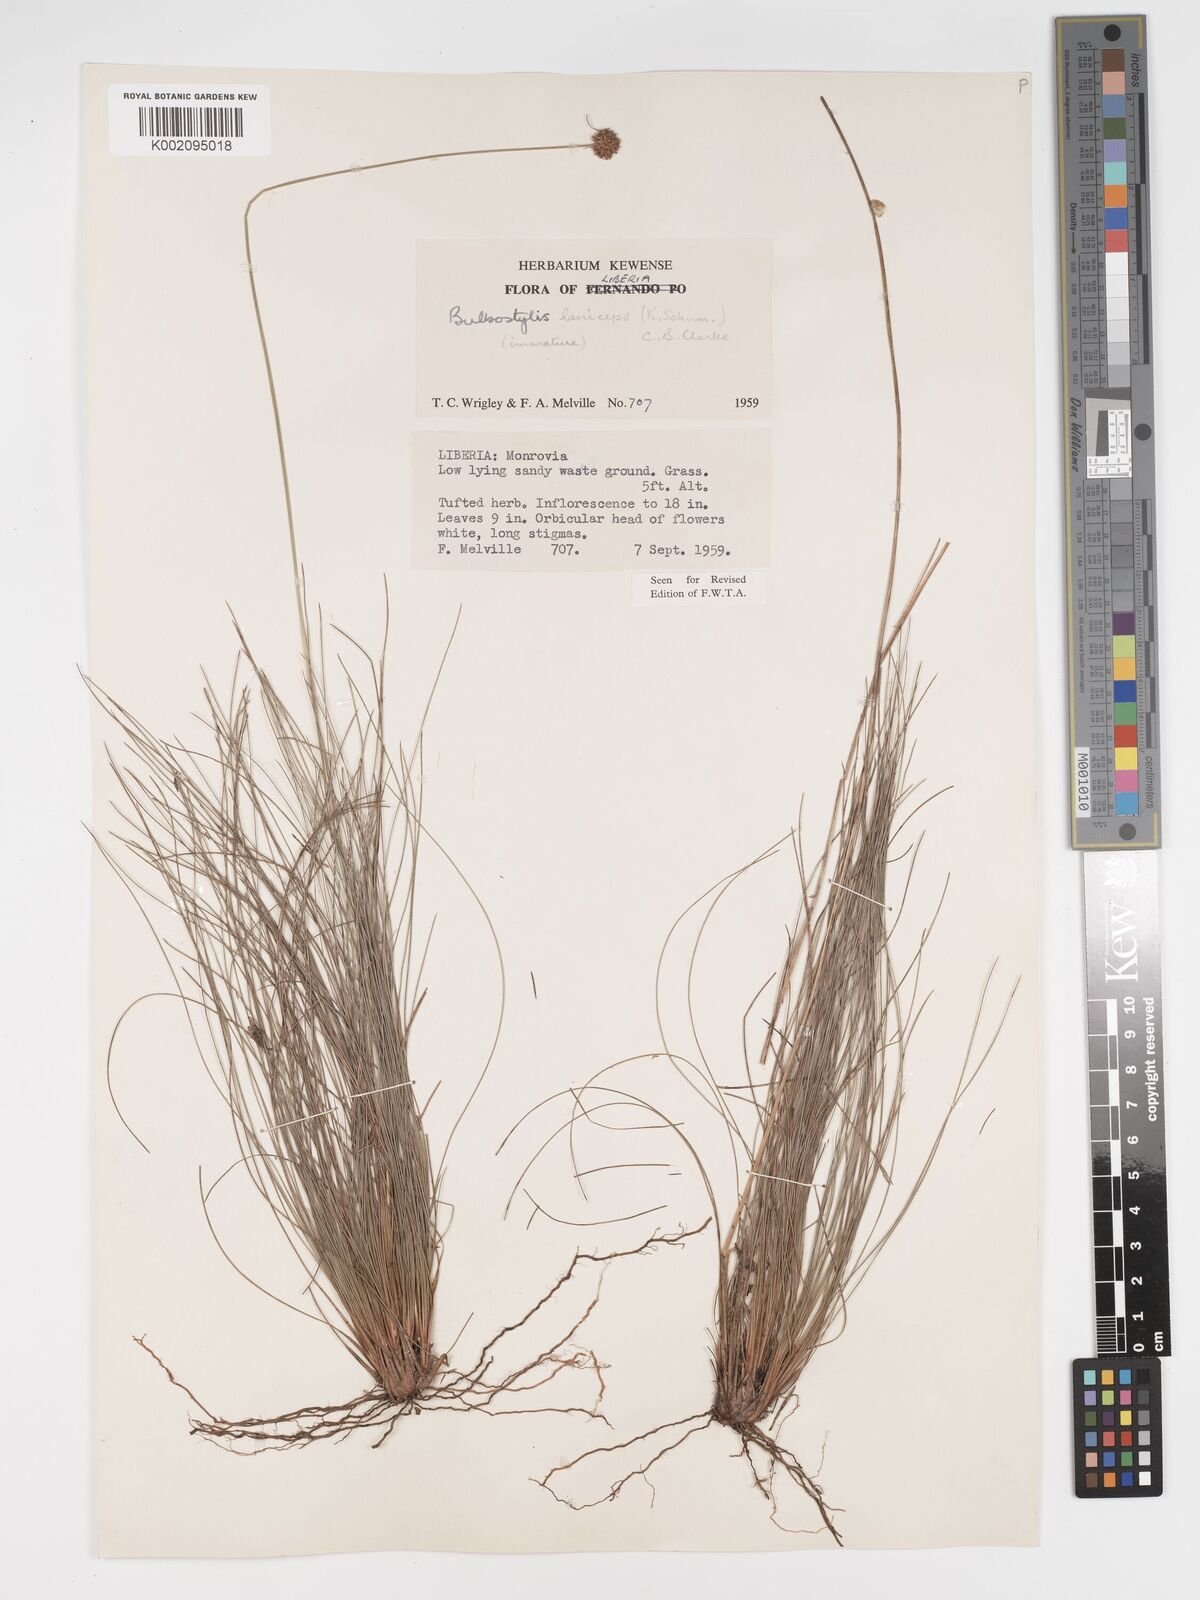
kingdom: Plantae
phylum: Tracheophyta
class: Liliopsida
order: Poales
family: Cyperaceae
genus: Bulbostylis
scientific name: Bulbostylis laniceps
